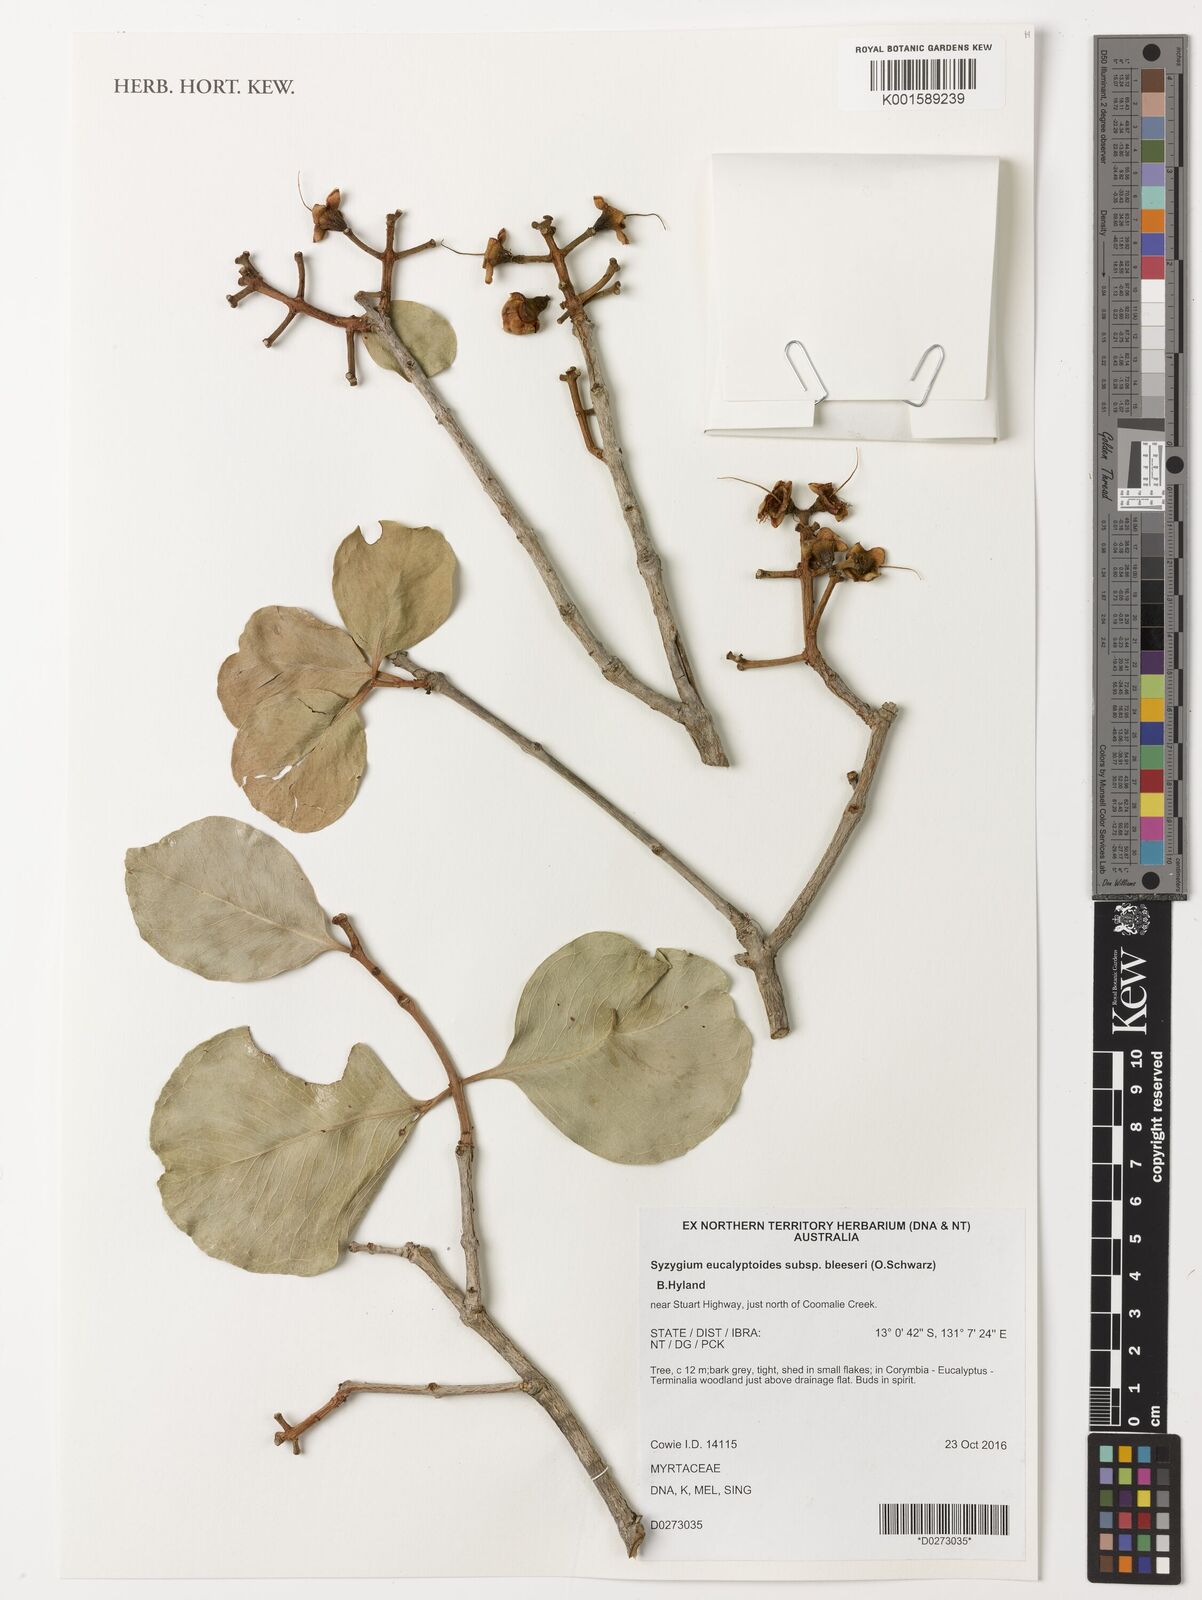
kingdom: Plantae
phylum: Tracheophyta
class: Magnoliopsida
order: Myrtales
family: Myrtaceae
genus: Syzygium
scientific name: Syzygium eucalyptoides
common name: Native apple
